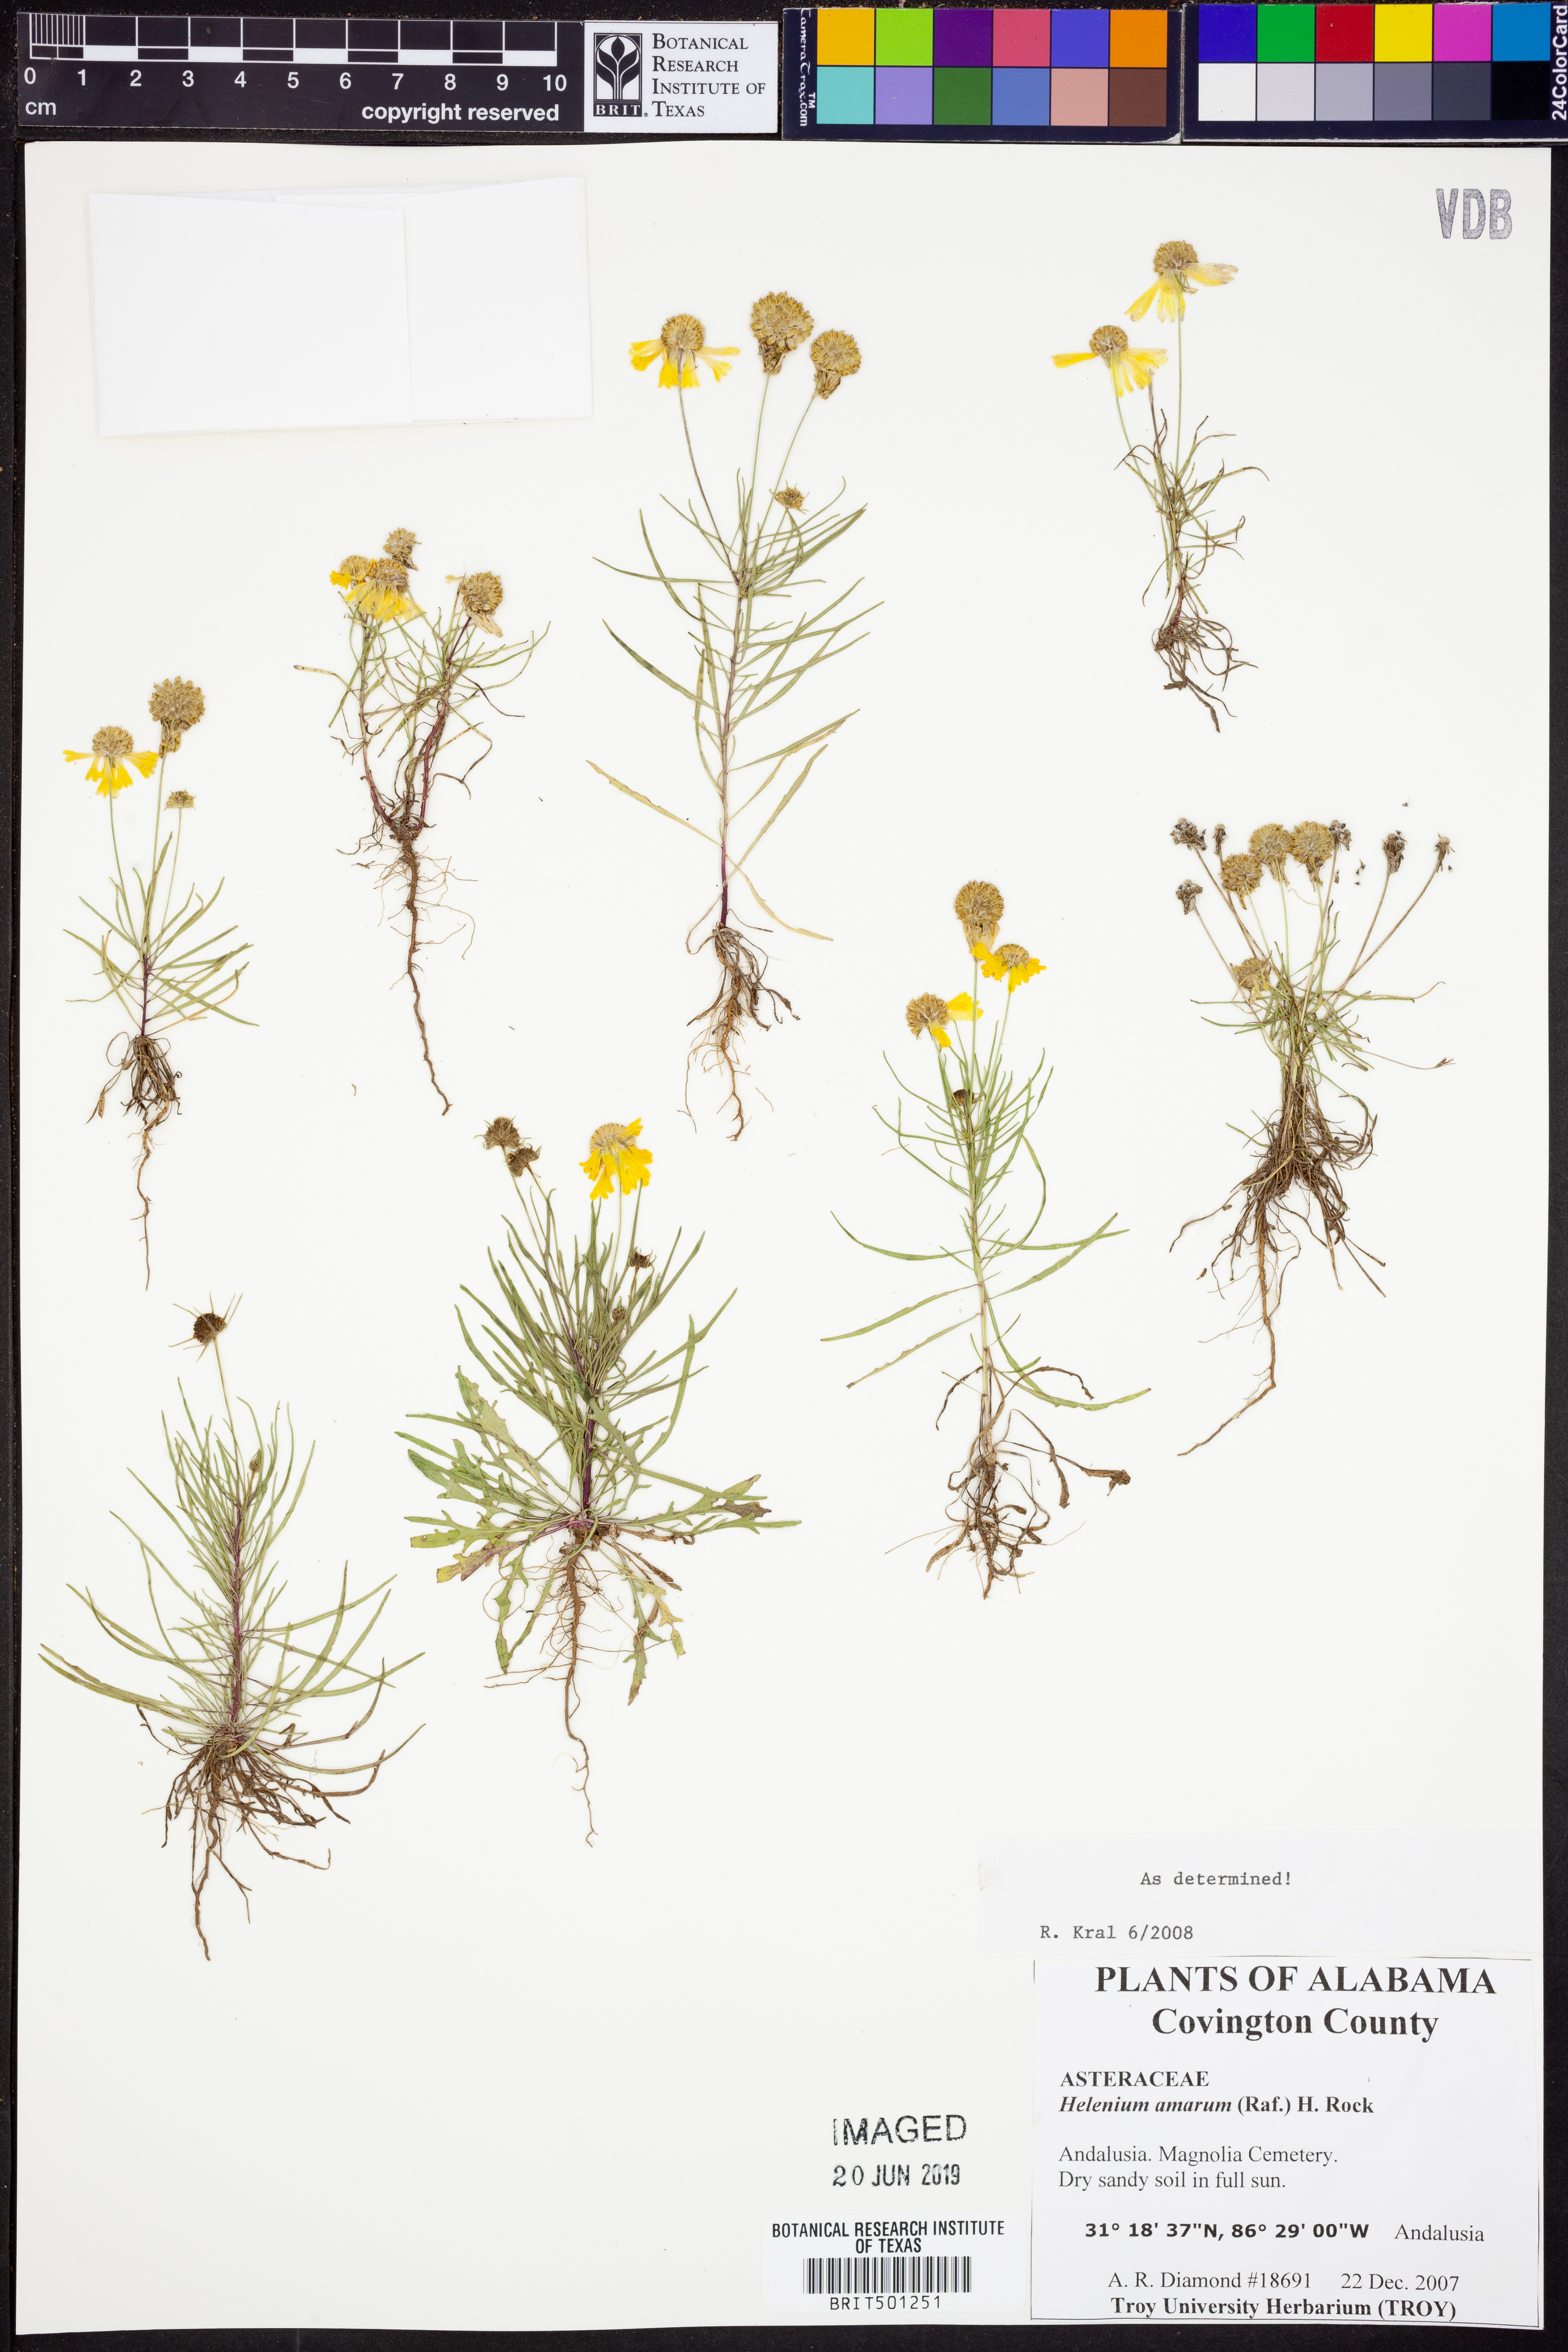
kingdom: Plantae
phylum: Tracheophyta
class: Magnoliopsida
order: Asterales
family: Asteraceae
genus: Helenium
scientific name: Helenium amarum
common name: Bitter sneezeweed
